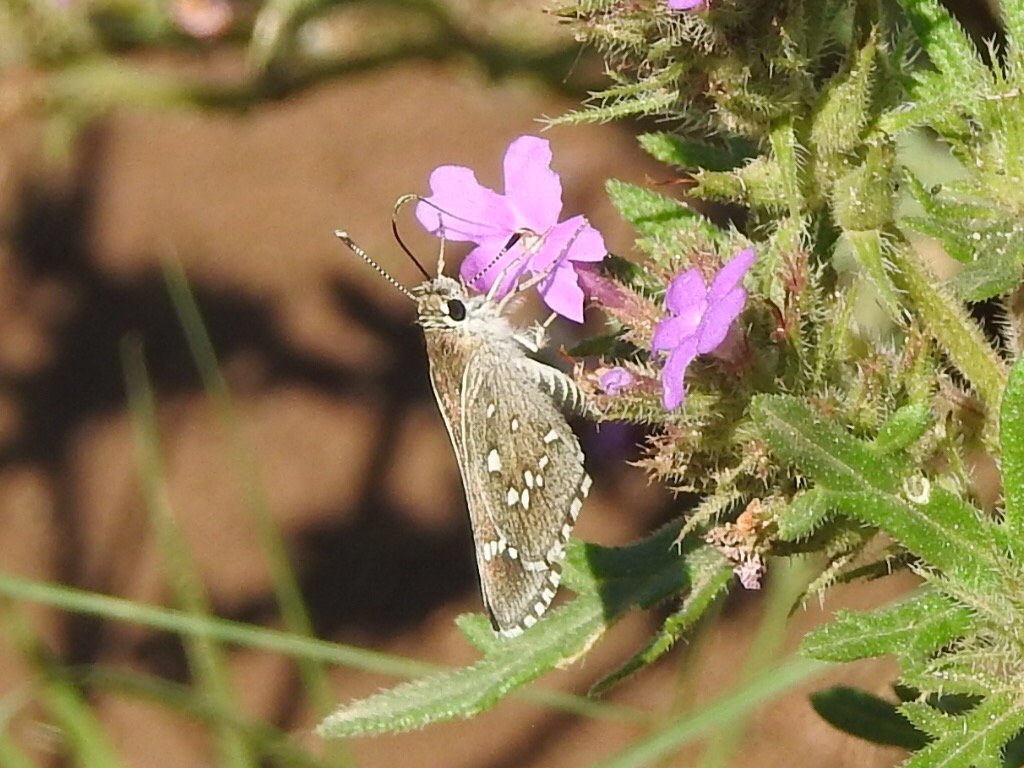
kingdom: Animalia
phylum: Arthropoda
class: Insecta
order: Lepidoptera
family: Hesperiidae
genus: Mastor
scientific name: Mastor eos
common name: Dotted Roadside-Skipper
